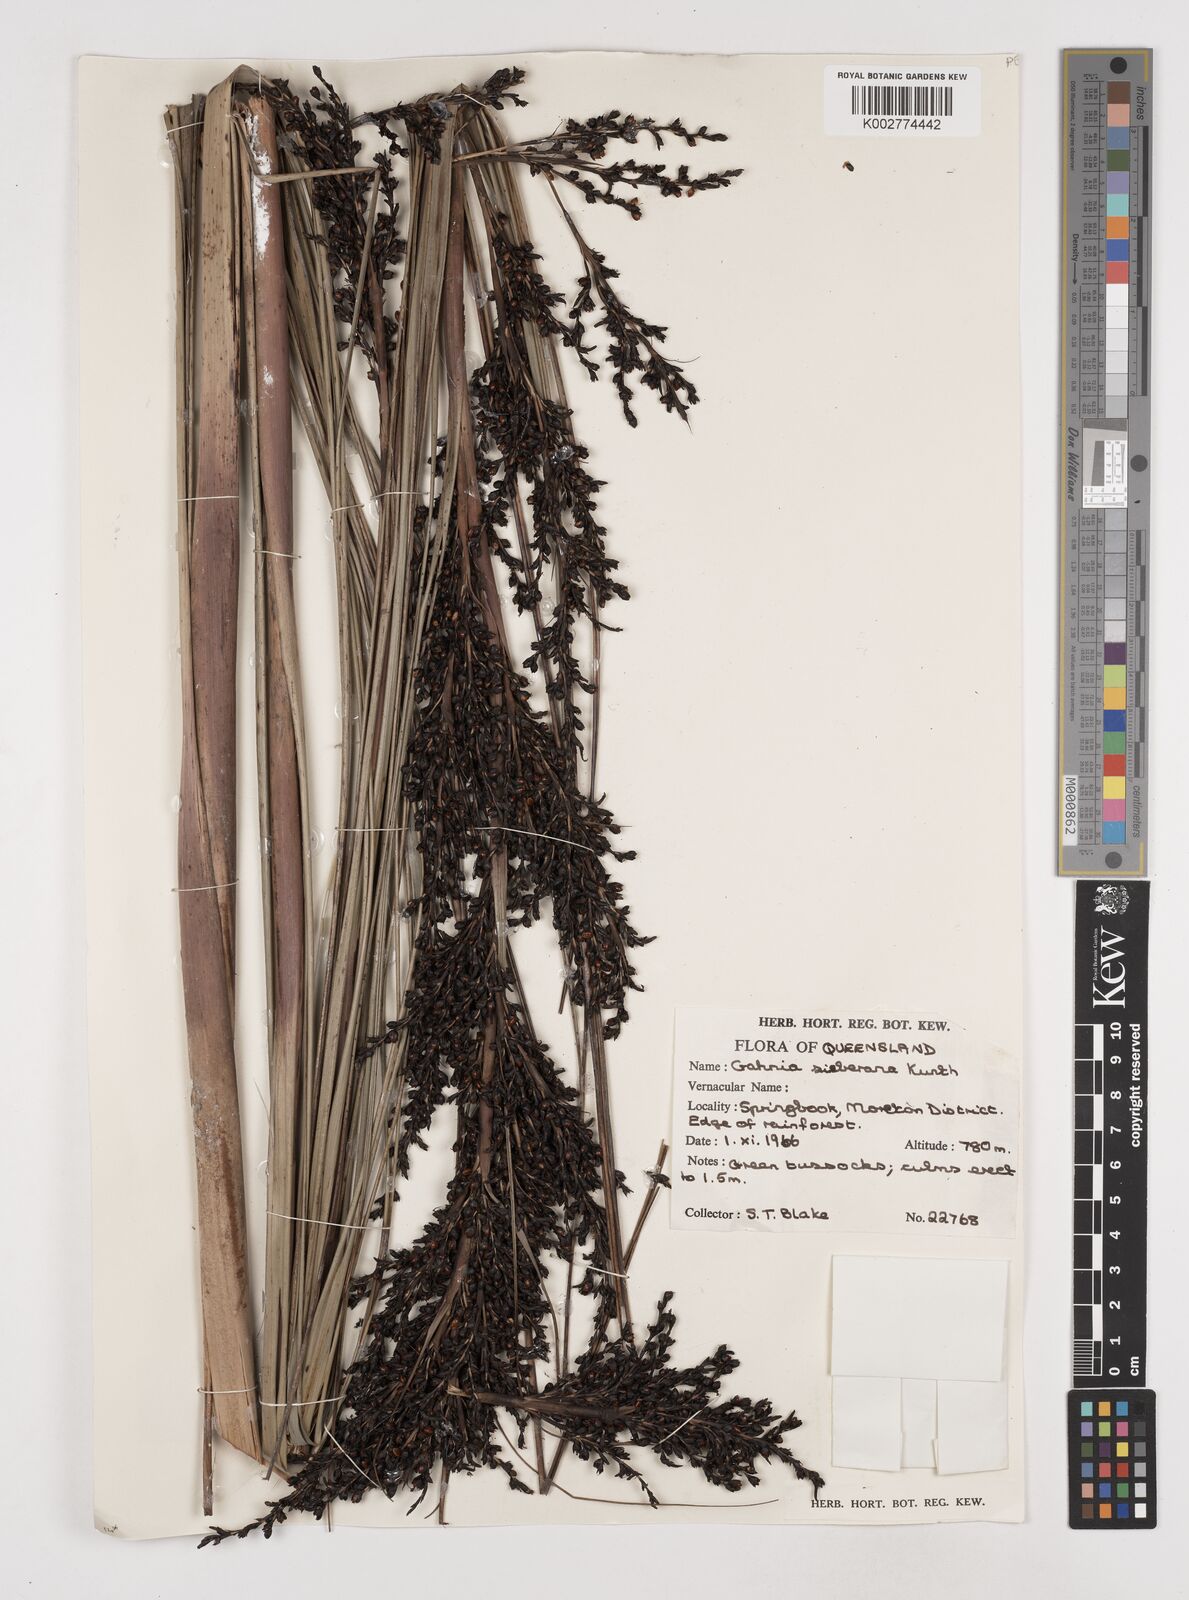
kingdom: Plantae
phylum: Tracheophyta
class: Liliopsida
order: Poales
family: Cyperaceae
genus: Gahnia
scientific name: Gahnia sieberiana
